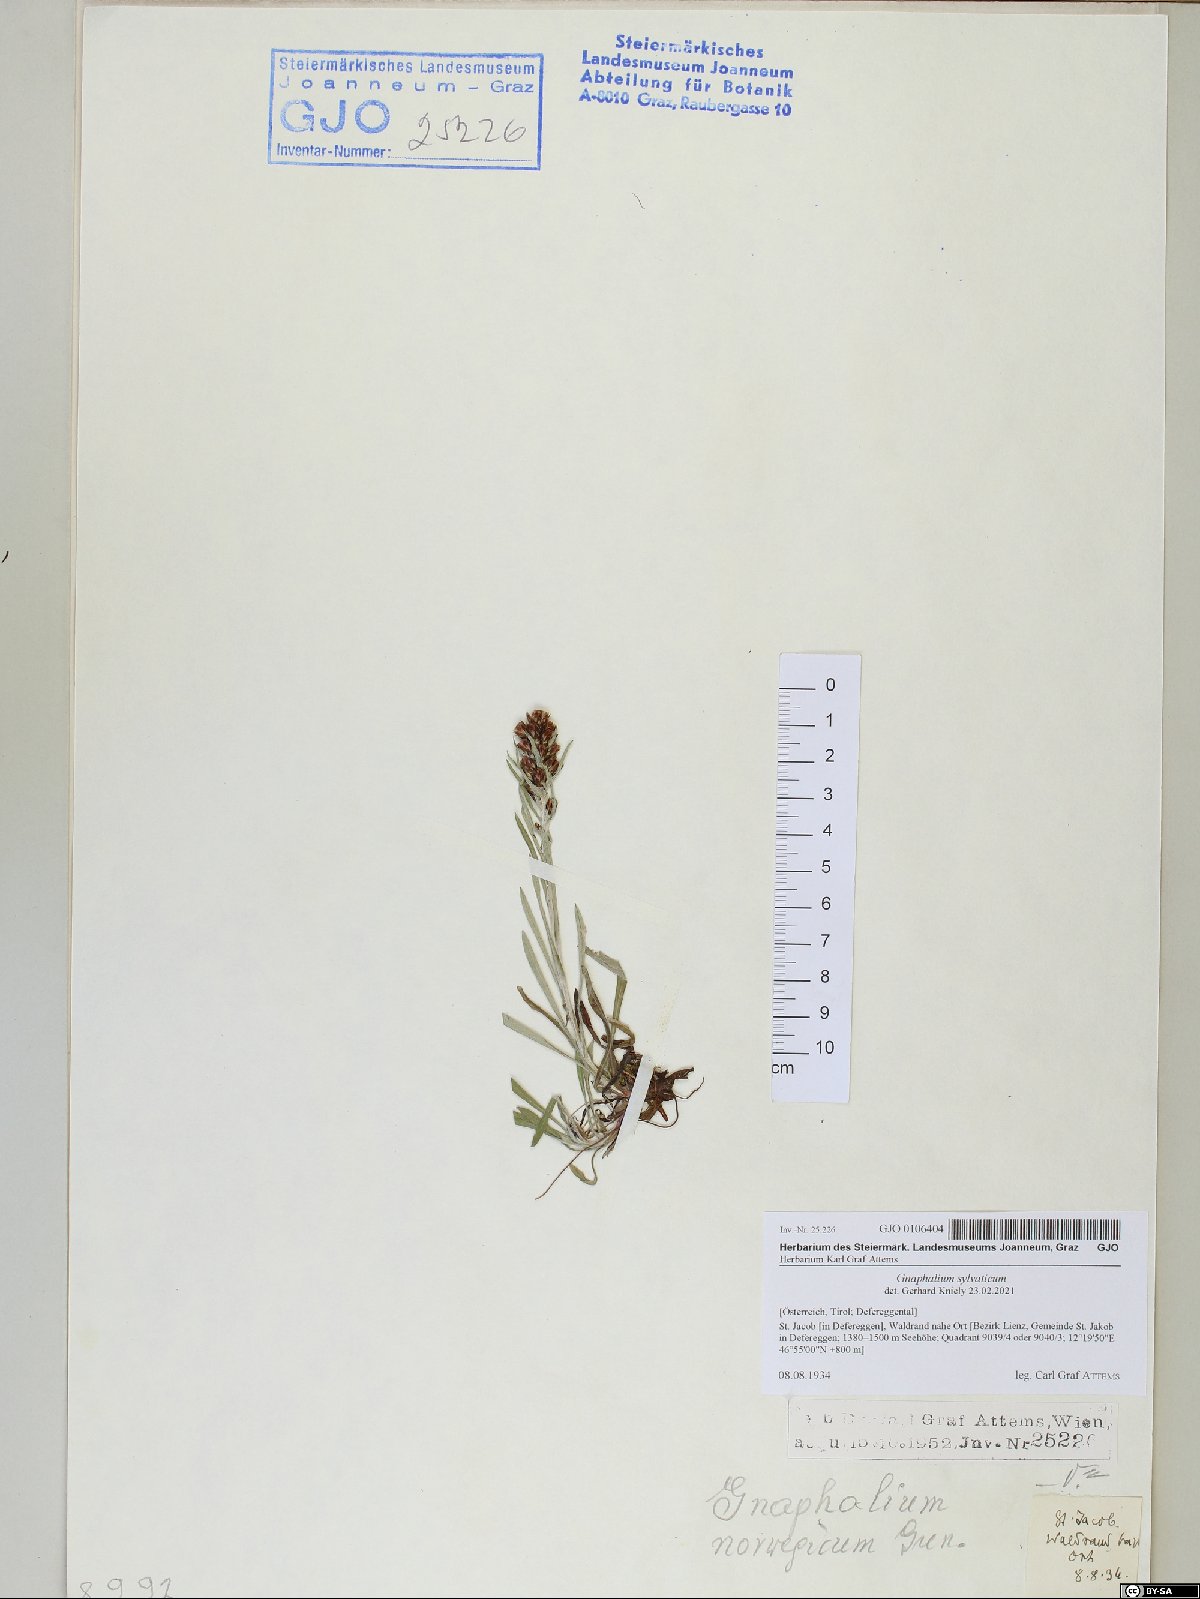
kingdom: Plantae
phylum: Tracheophyta
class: Magnoliopsida
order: Asterales
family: Asteraceae
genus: Omalotheca
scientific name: Omalotheca sylvatica
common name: Heath cudweed
